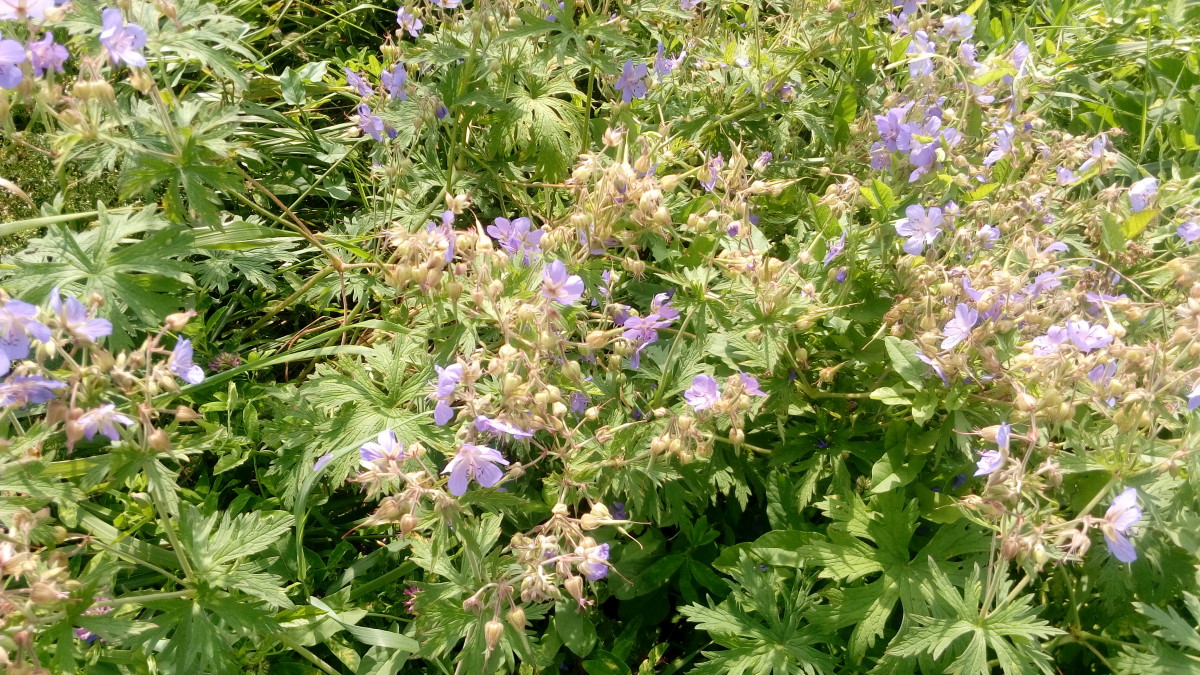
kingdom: Plantae
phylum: Tracheophyta
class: Magnoliopsida
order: Geraniales
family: Geraniaceae
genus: Geranium
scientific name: Geranium pratense
